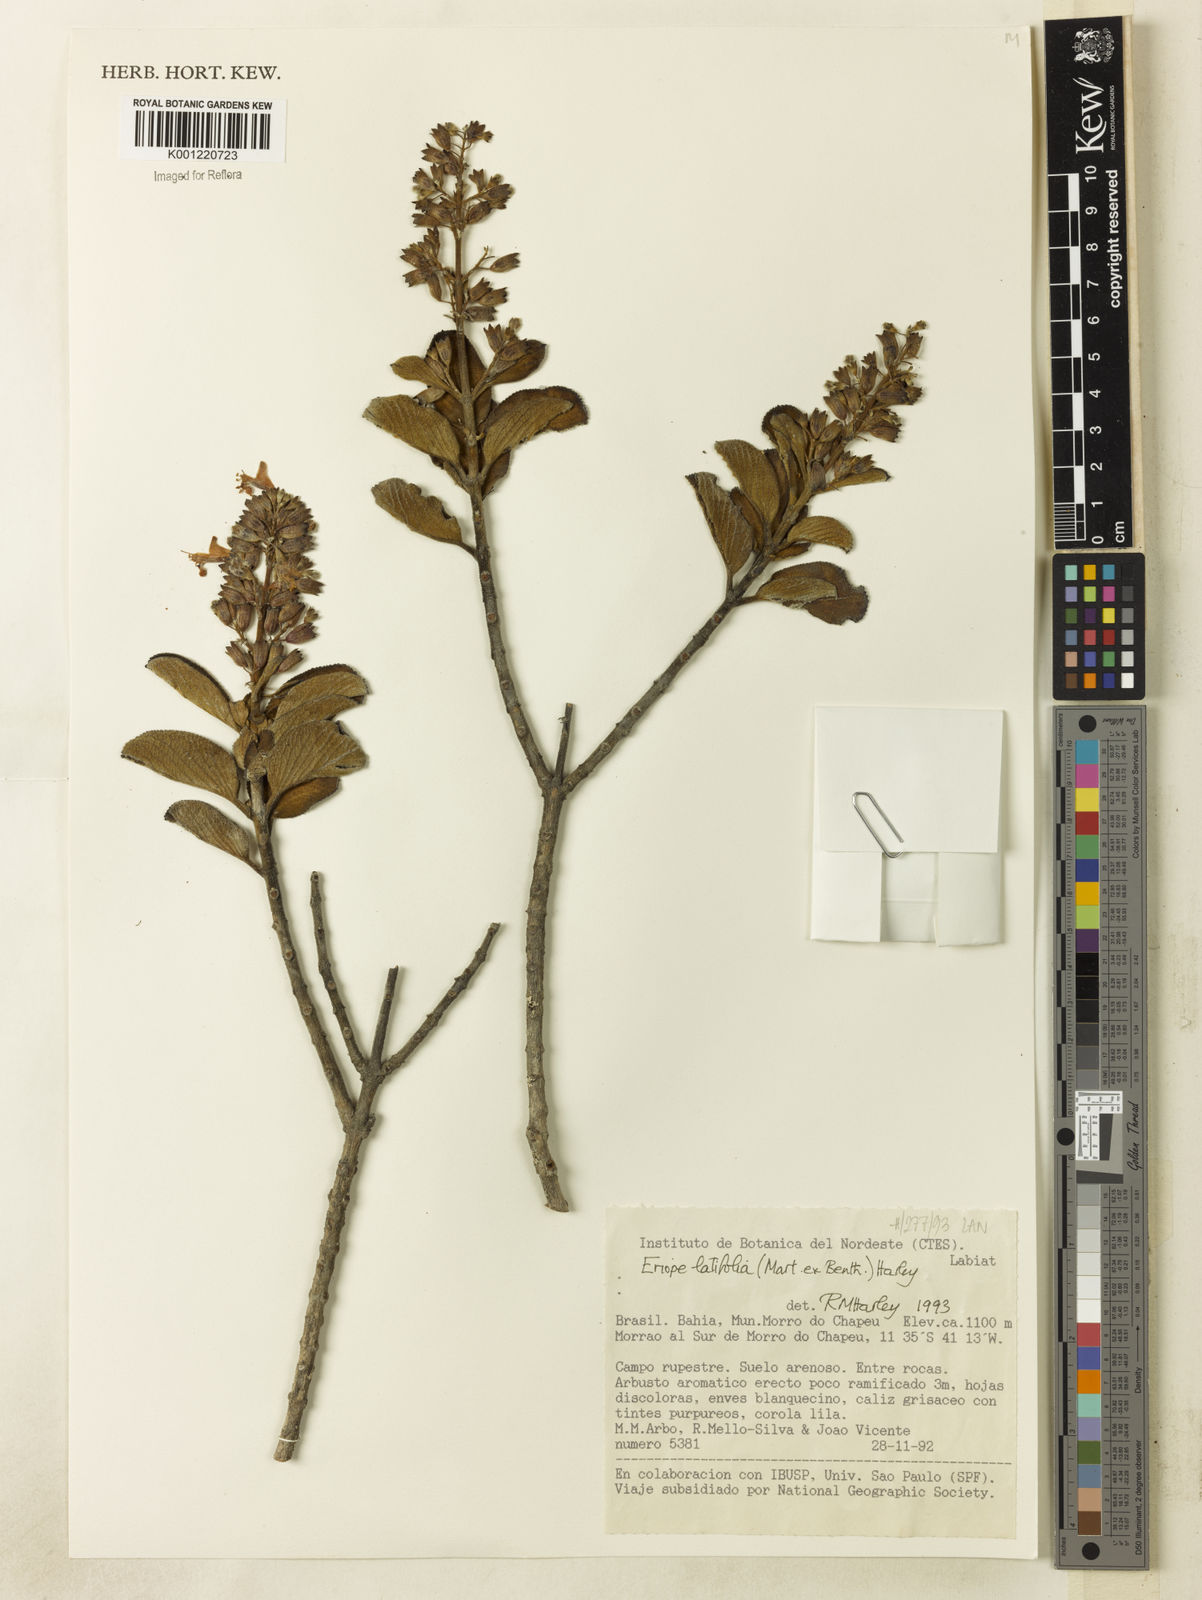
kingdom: Plantae
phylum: Tracheophyta
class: Magnoliopsida
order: Lamiales
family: Lamiaceae
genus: Eriope
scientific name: Eriope latifolia
